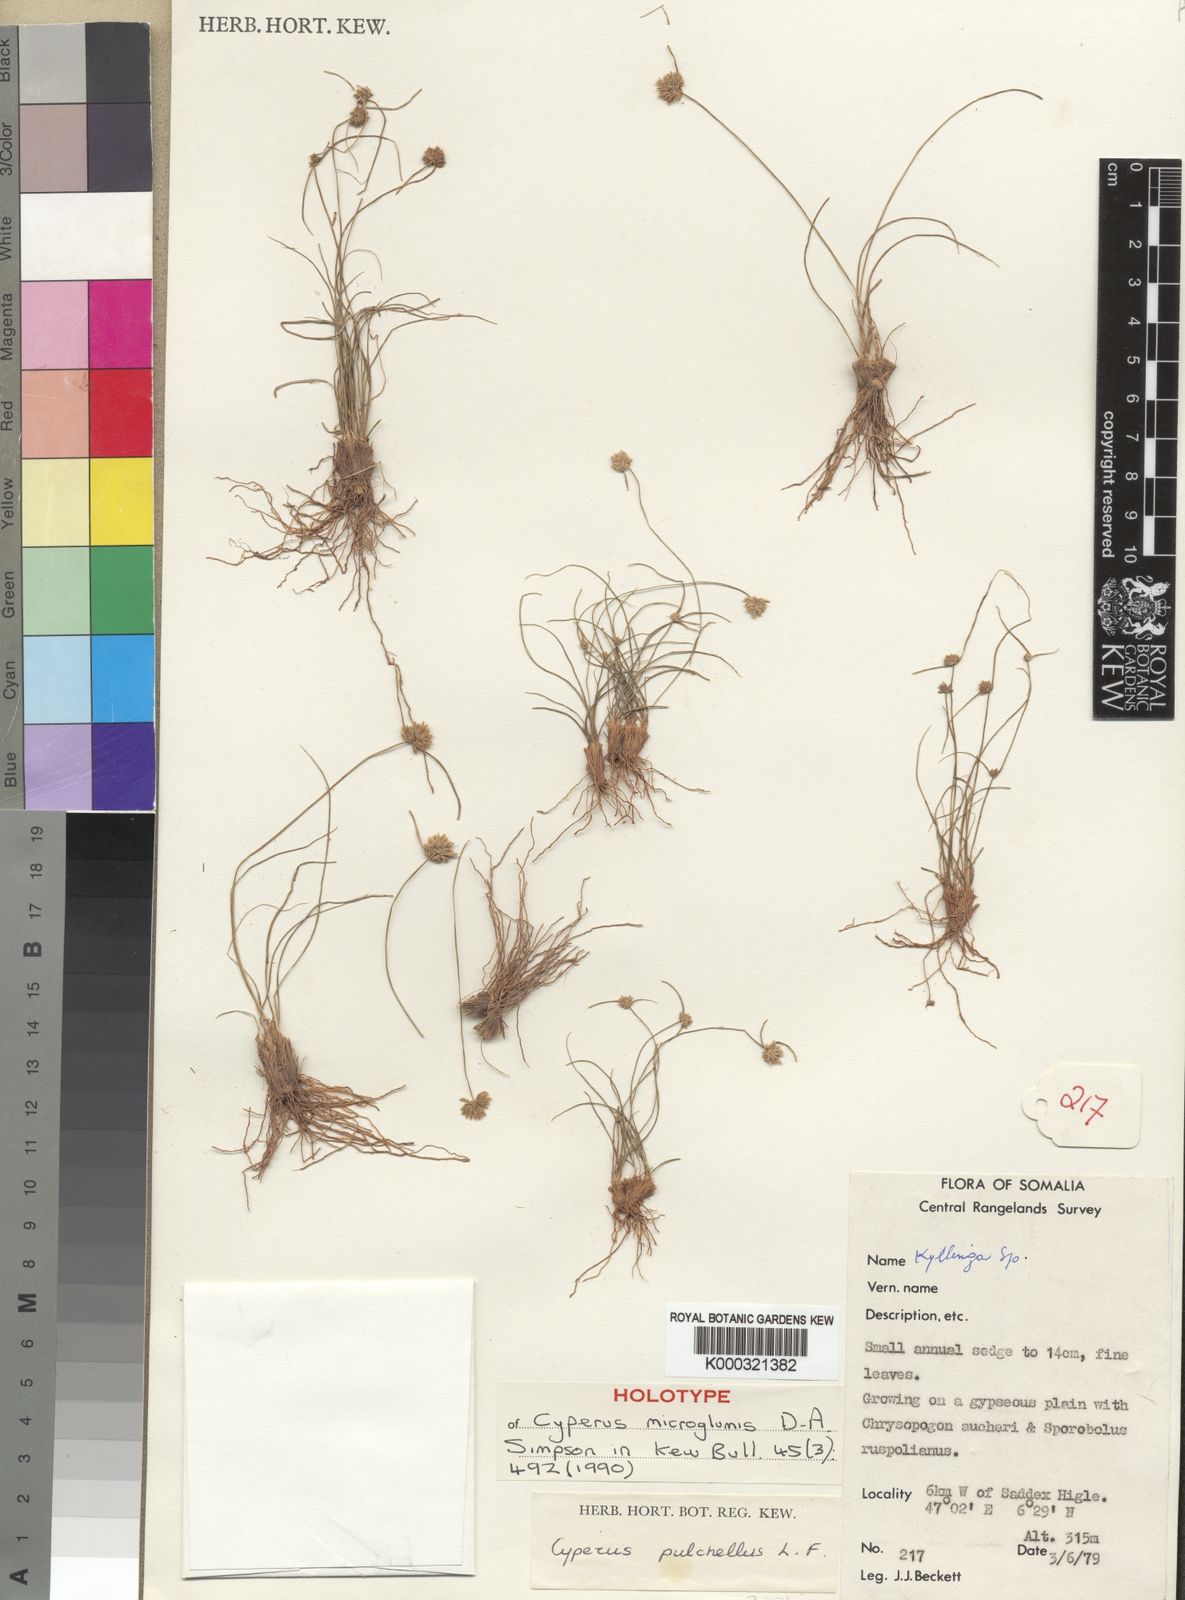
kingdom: Plantae
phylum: Tracheophyta
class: Liliopsida
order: Poales
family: Cyperaceae
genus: Cyperus
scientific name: Cyperus microglumis
